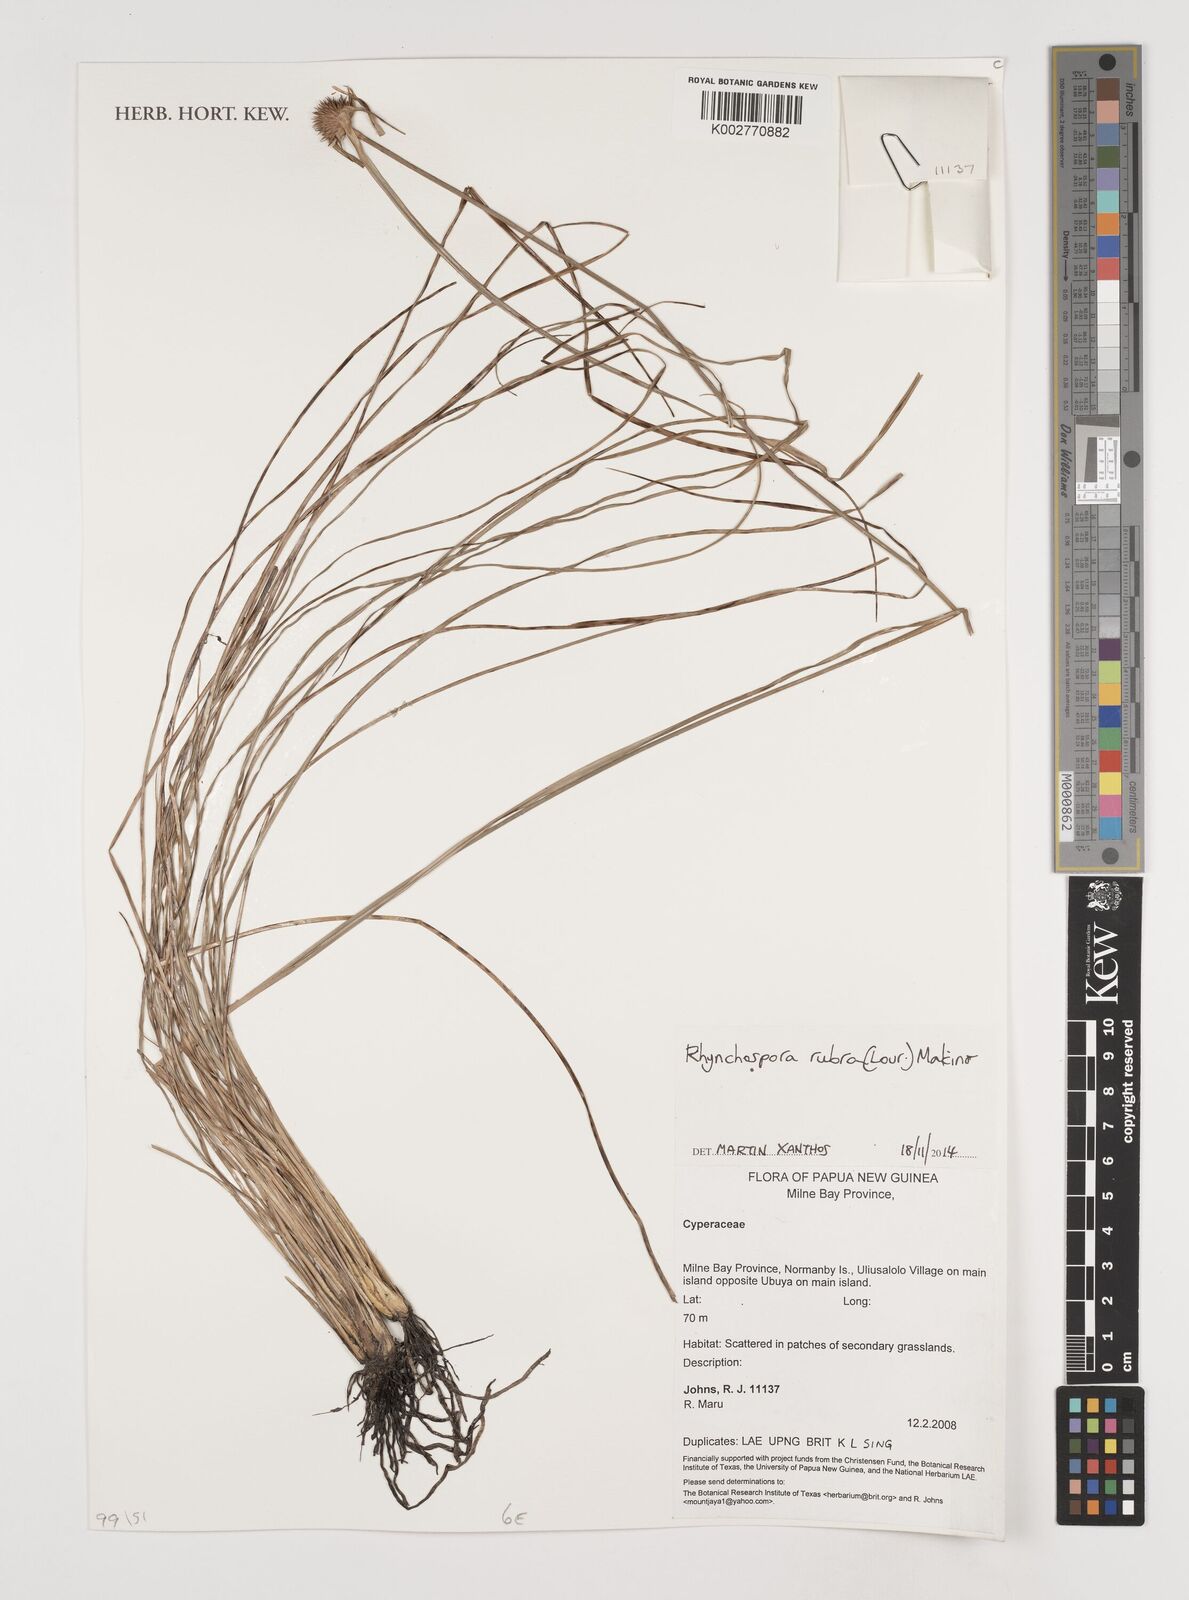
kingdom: Plantae
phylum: Tracheophyta
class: Liliopsida
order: Poales
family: Cyperaceae
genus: Rhynchospora
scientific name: Rhynchospora rubra
